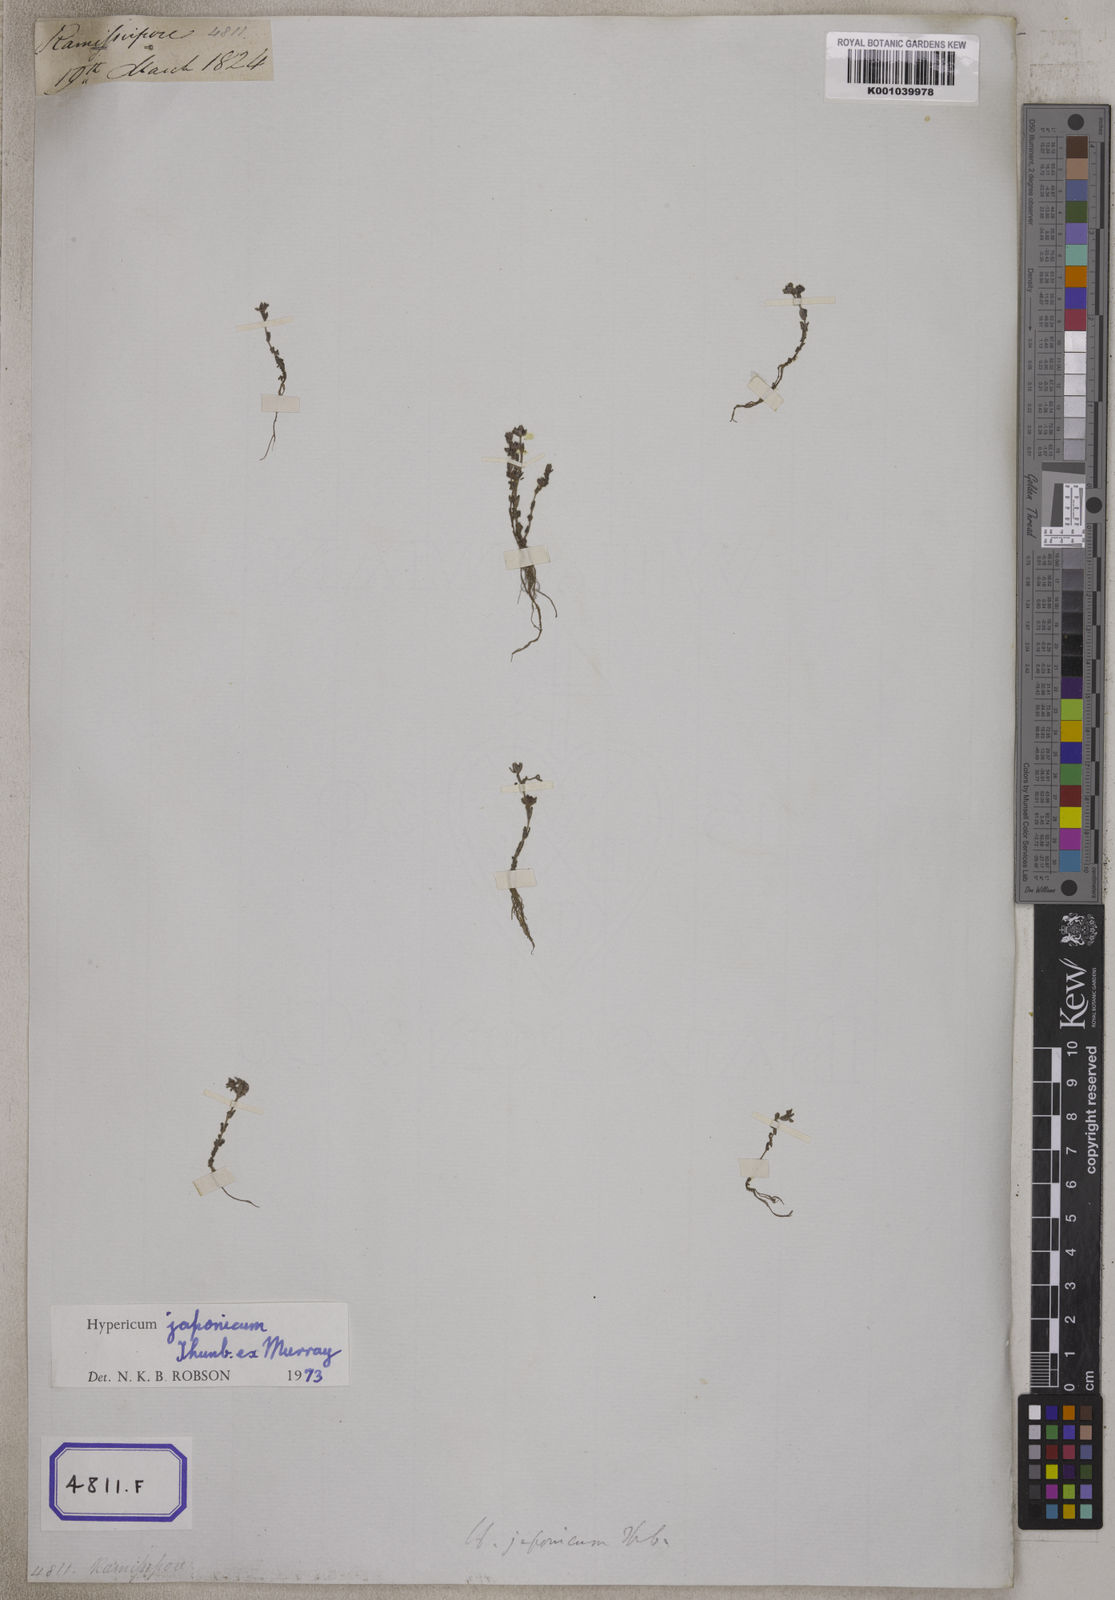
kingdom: Plantae
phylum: Tracheophyta
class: Magnoliopsida
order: Malpighiales
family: Hypericaceae
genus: Hypericum
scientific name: Hypericum japonicum
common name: Matted st. john's-wort
